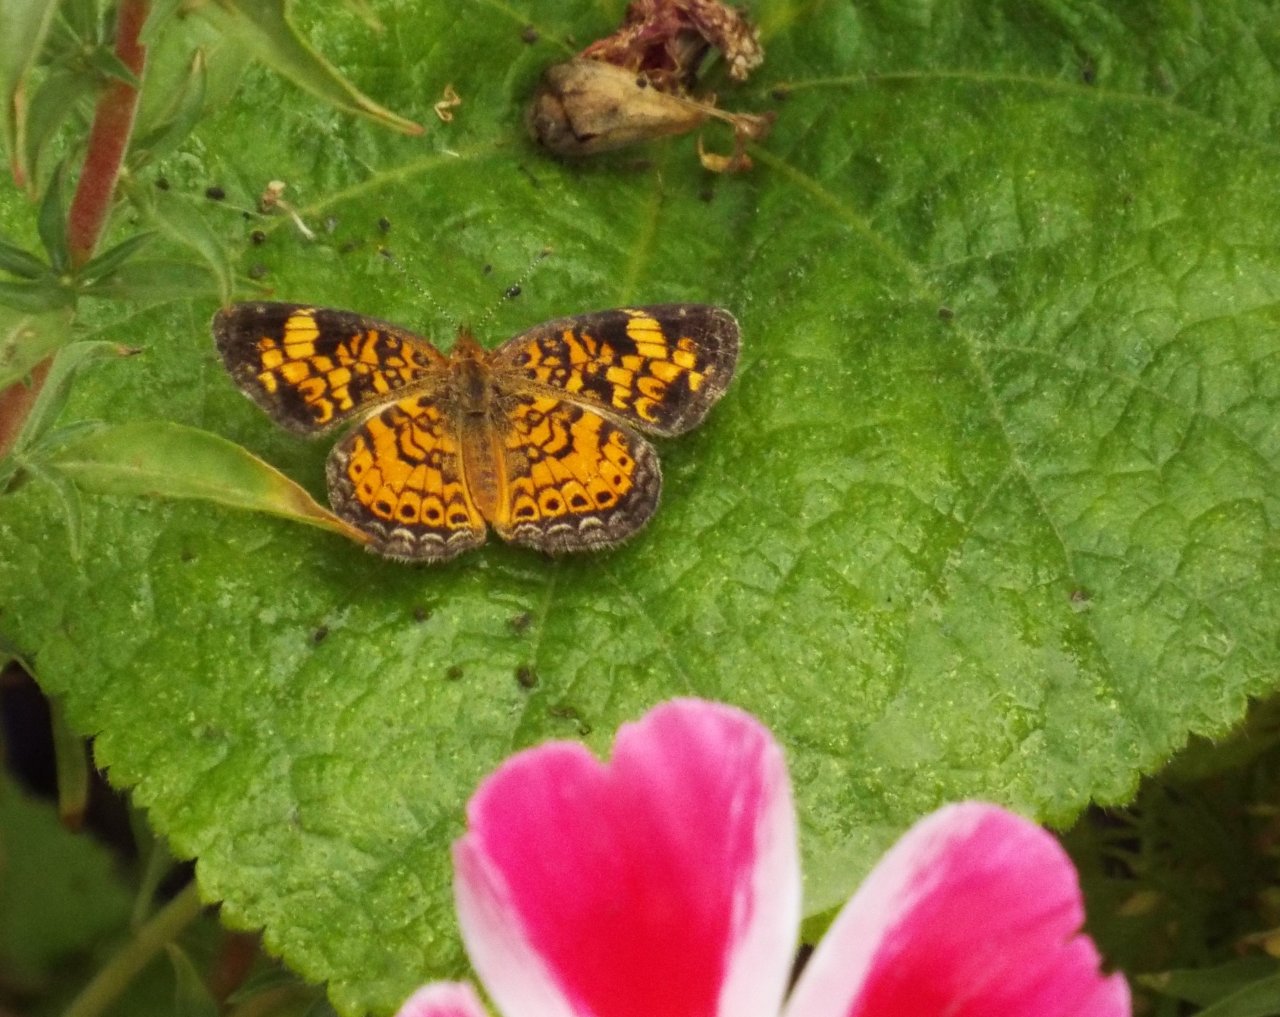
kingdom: Animalia
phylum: Arthropoda
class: Insecta
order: Lepidoptera
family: Nymphalidae
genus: Phyciodes
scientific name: Phyciodes tharos
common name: Pearl Crescent
